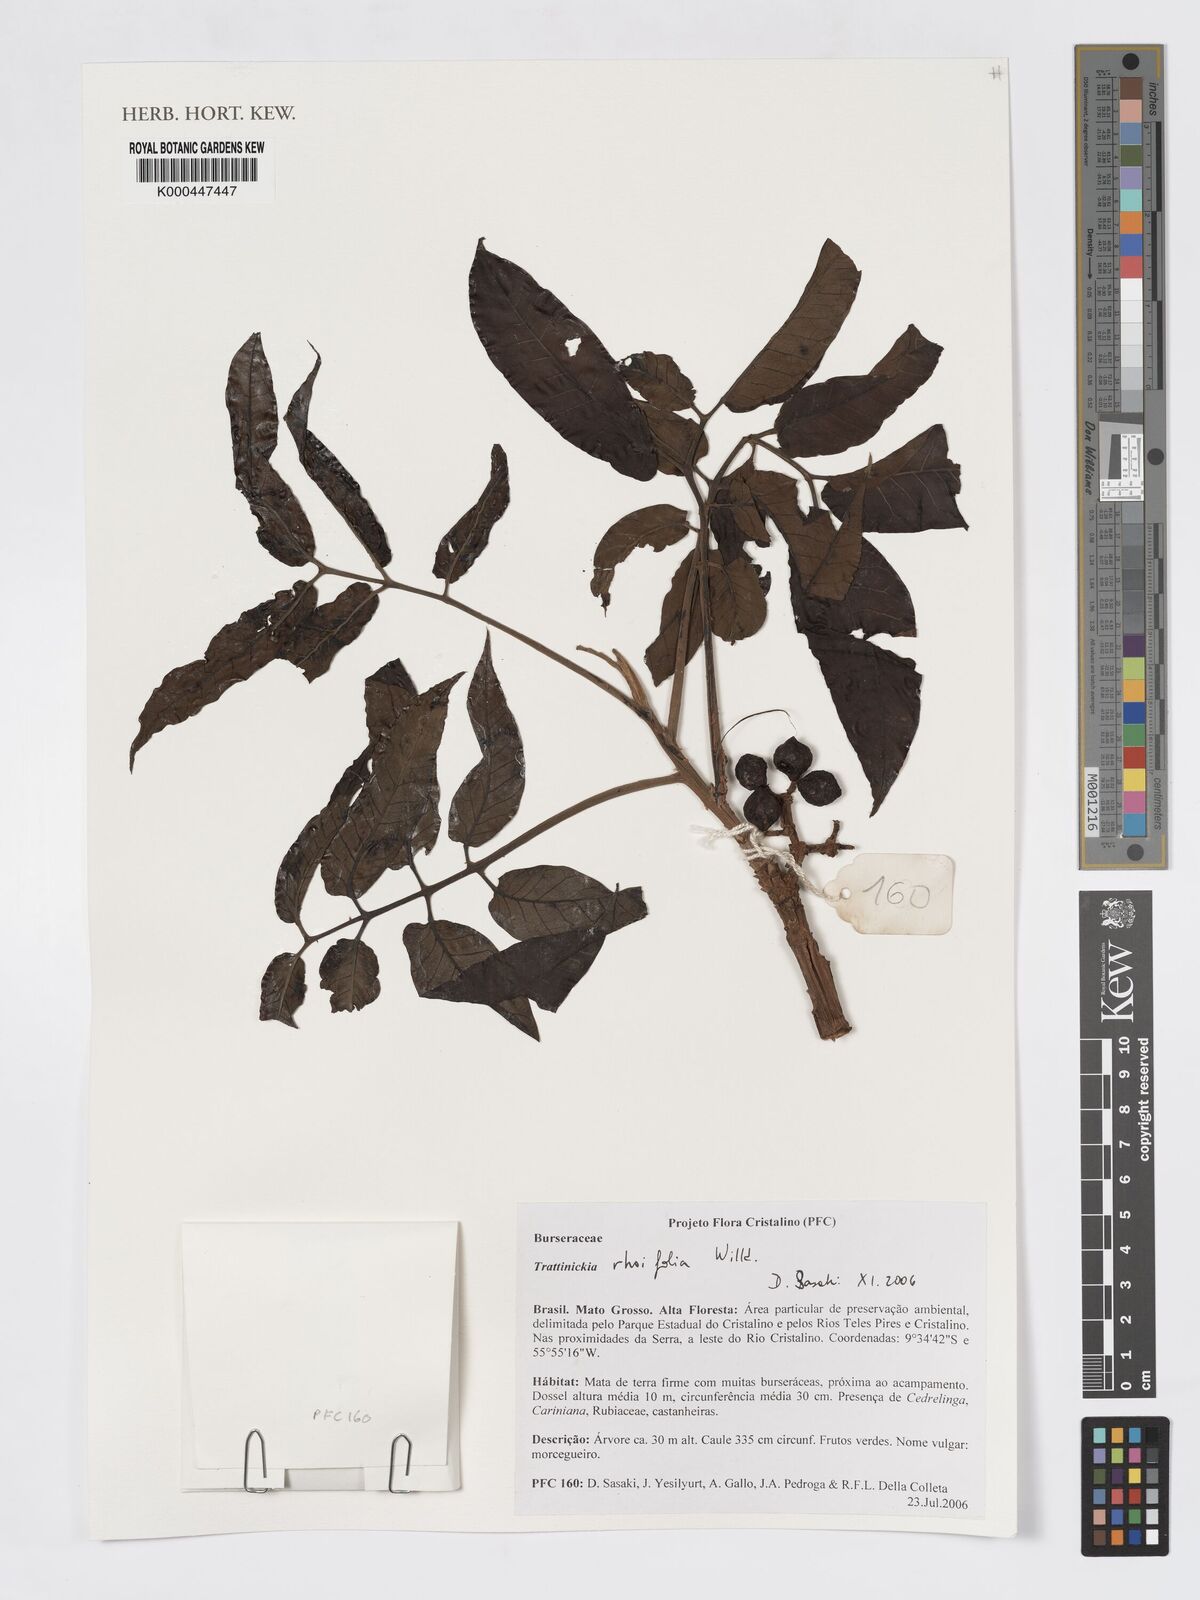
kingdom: Plantae
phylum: Tracheophyta
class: Magnoliopsida
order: Sapindales
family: Burseraceae
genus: Trattinnickia
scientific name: Trattinnickia rhoifolia
